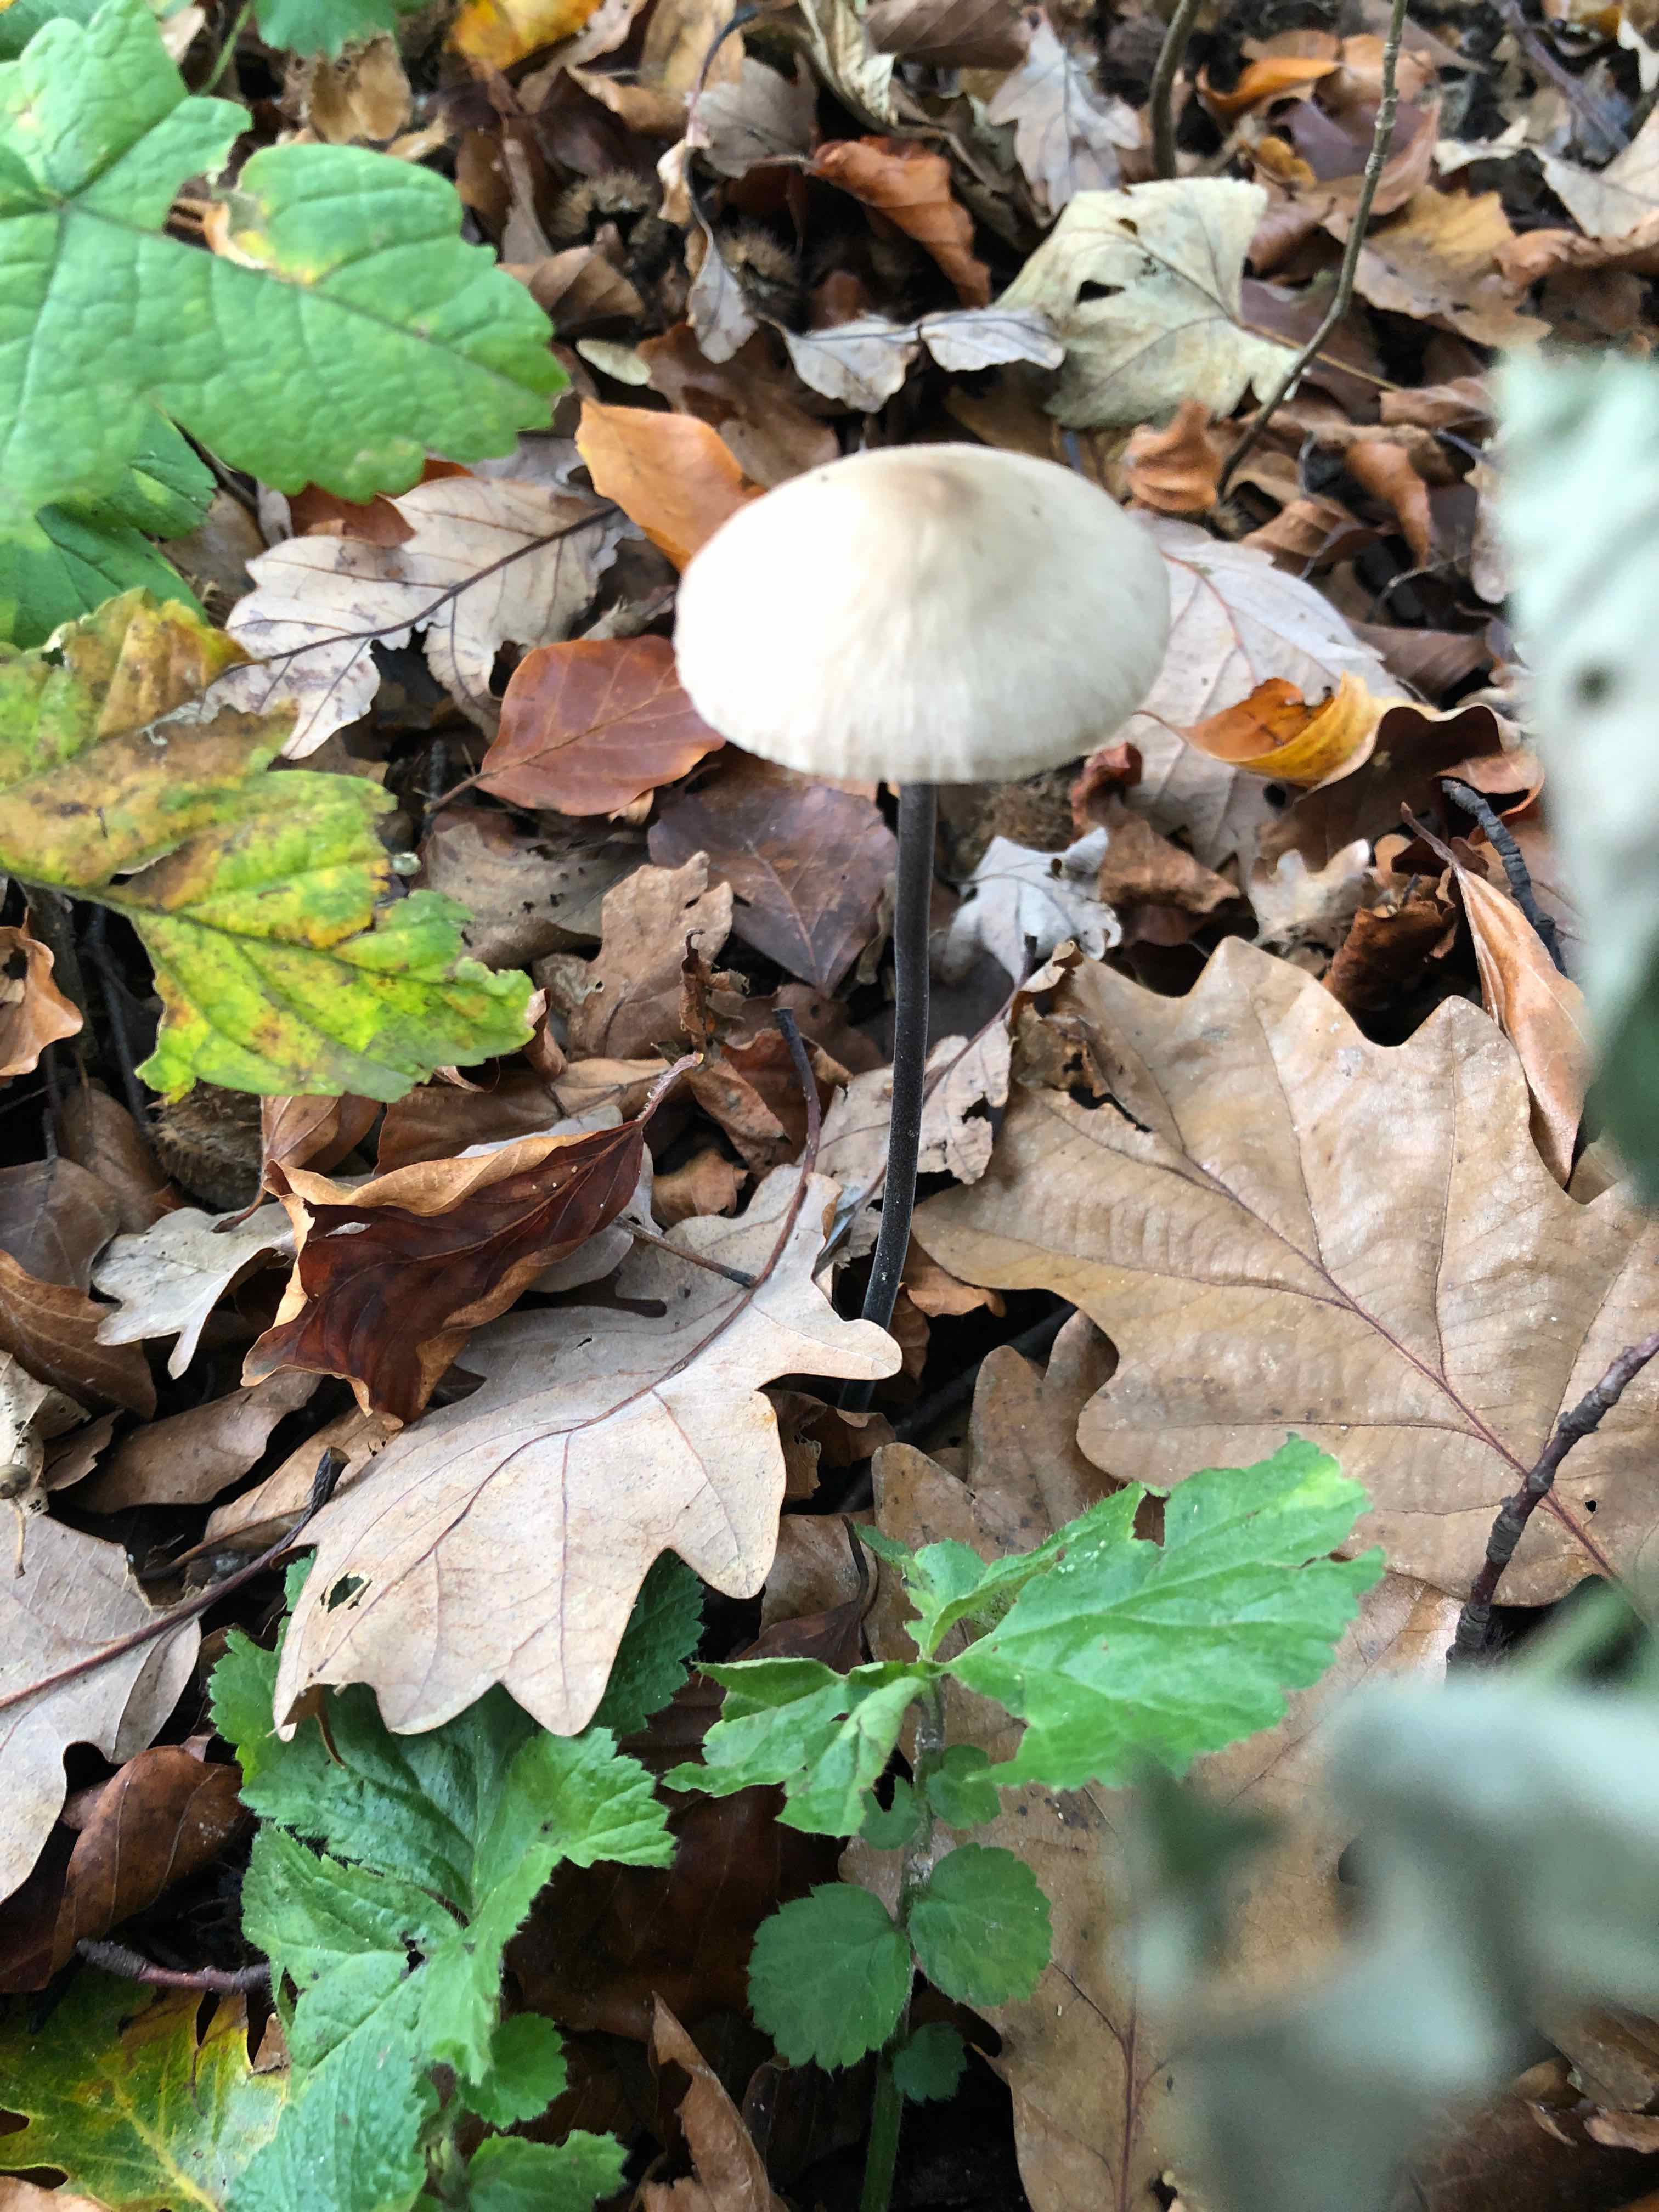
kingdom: Fungi
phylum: Basidiomycota
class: Agaricomycetes
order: Agaricales
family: Omphalotaceae
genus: Mycetinis
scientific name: Mycetinis alliaceus
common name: stor løghat
